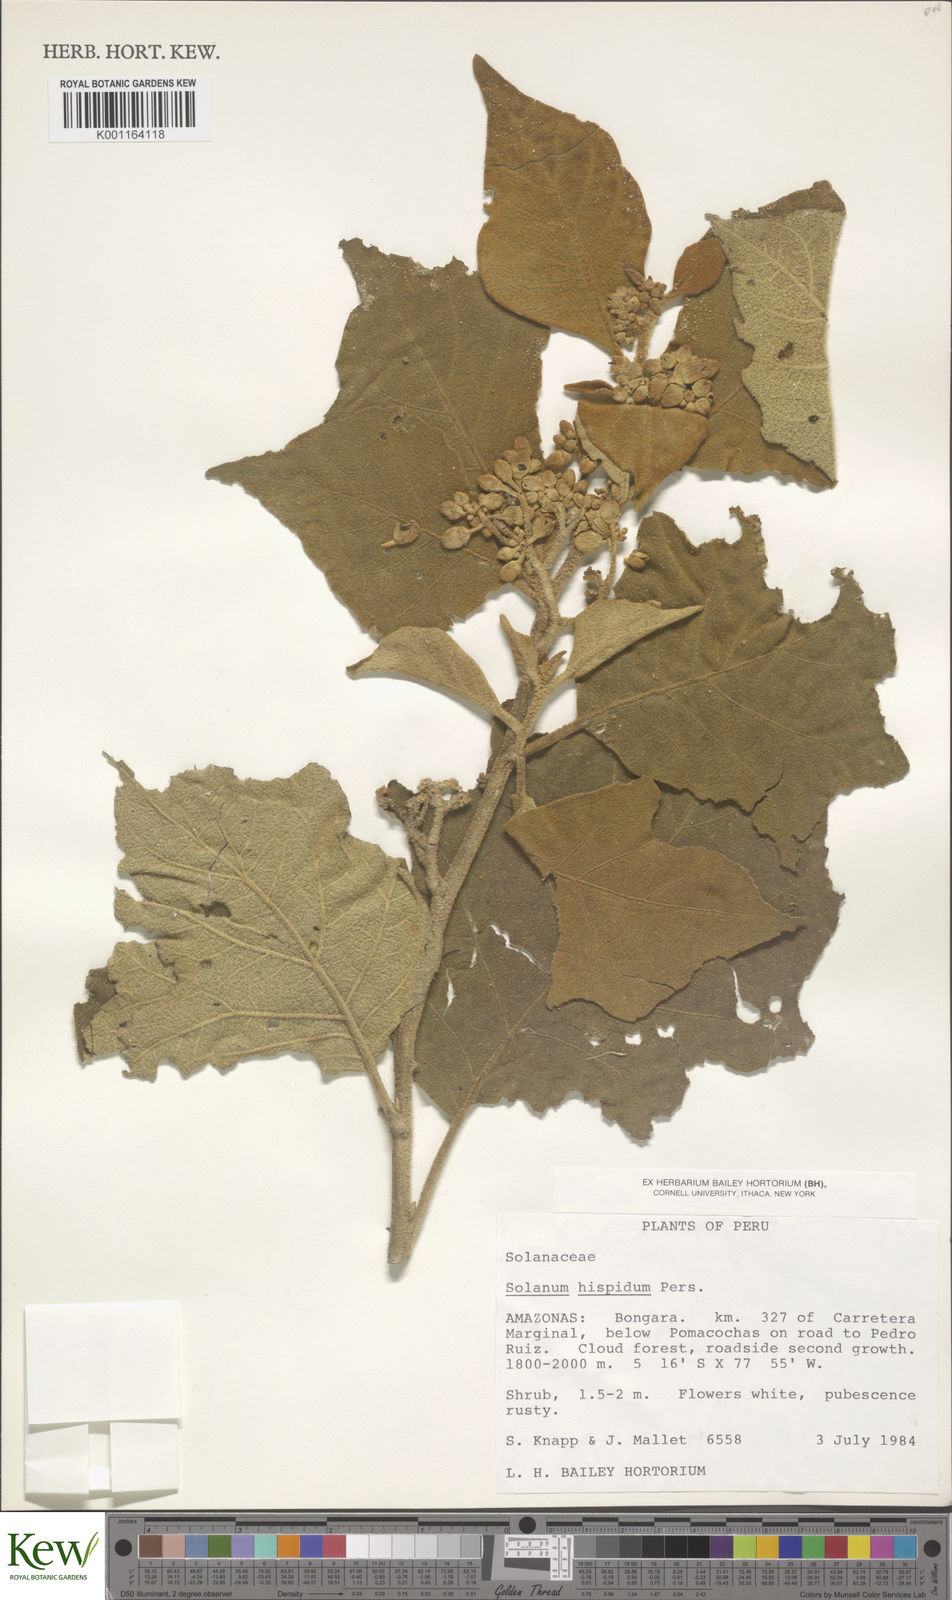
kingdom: Plantae
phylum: Tracheophyta
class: Magnoliopsida
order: Solanales
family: Solanaceae
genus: Solanum
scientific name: Solanum asperolanatum
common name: Devil's-fig
